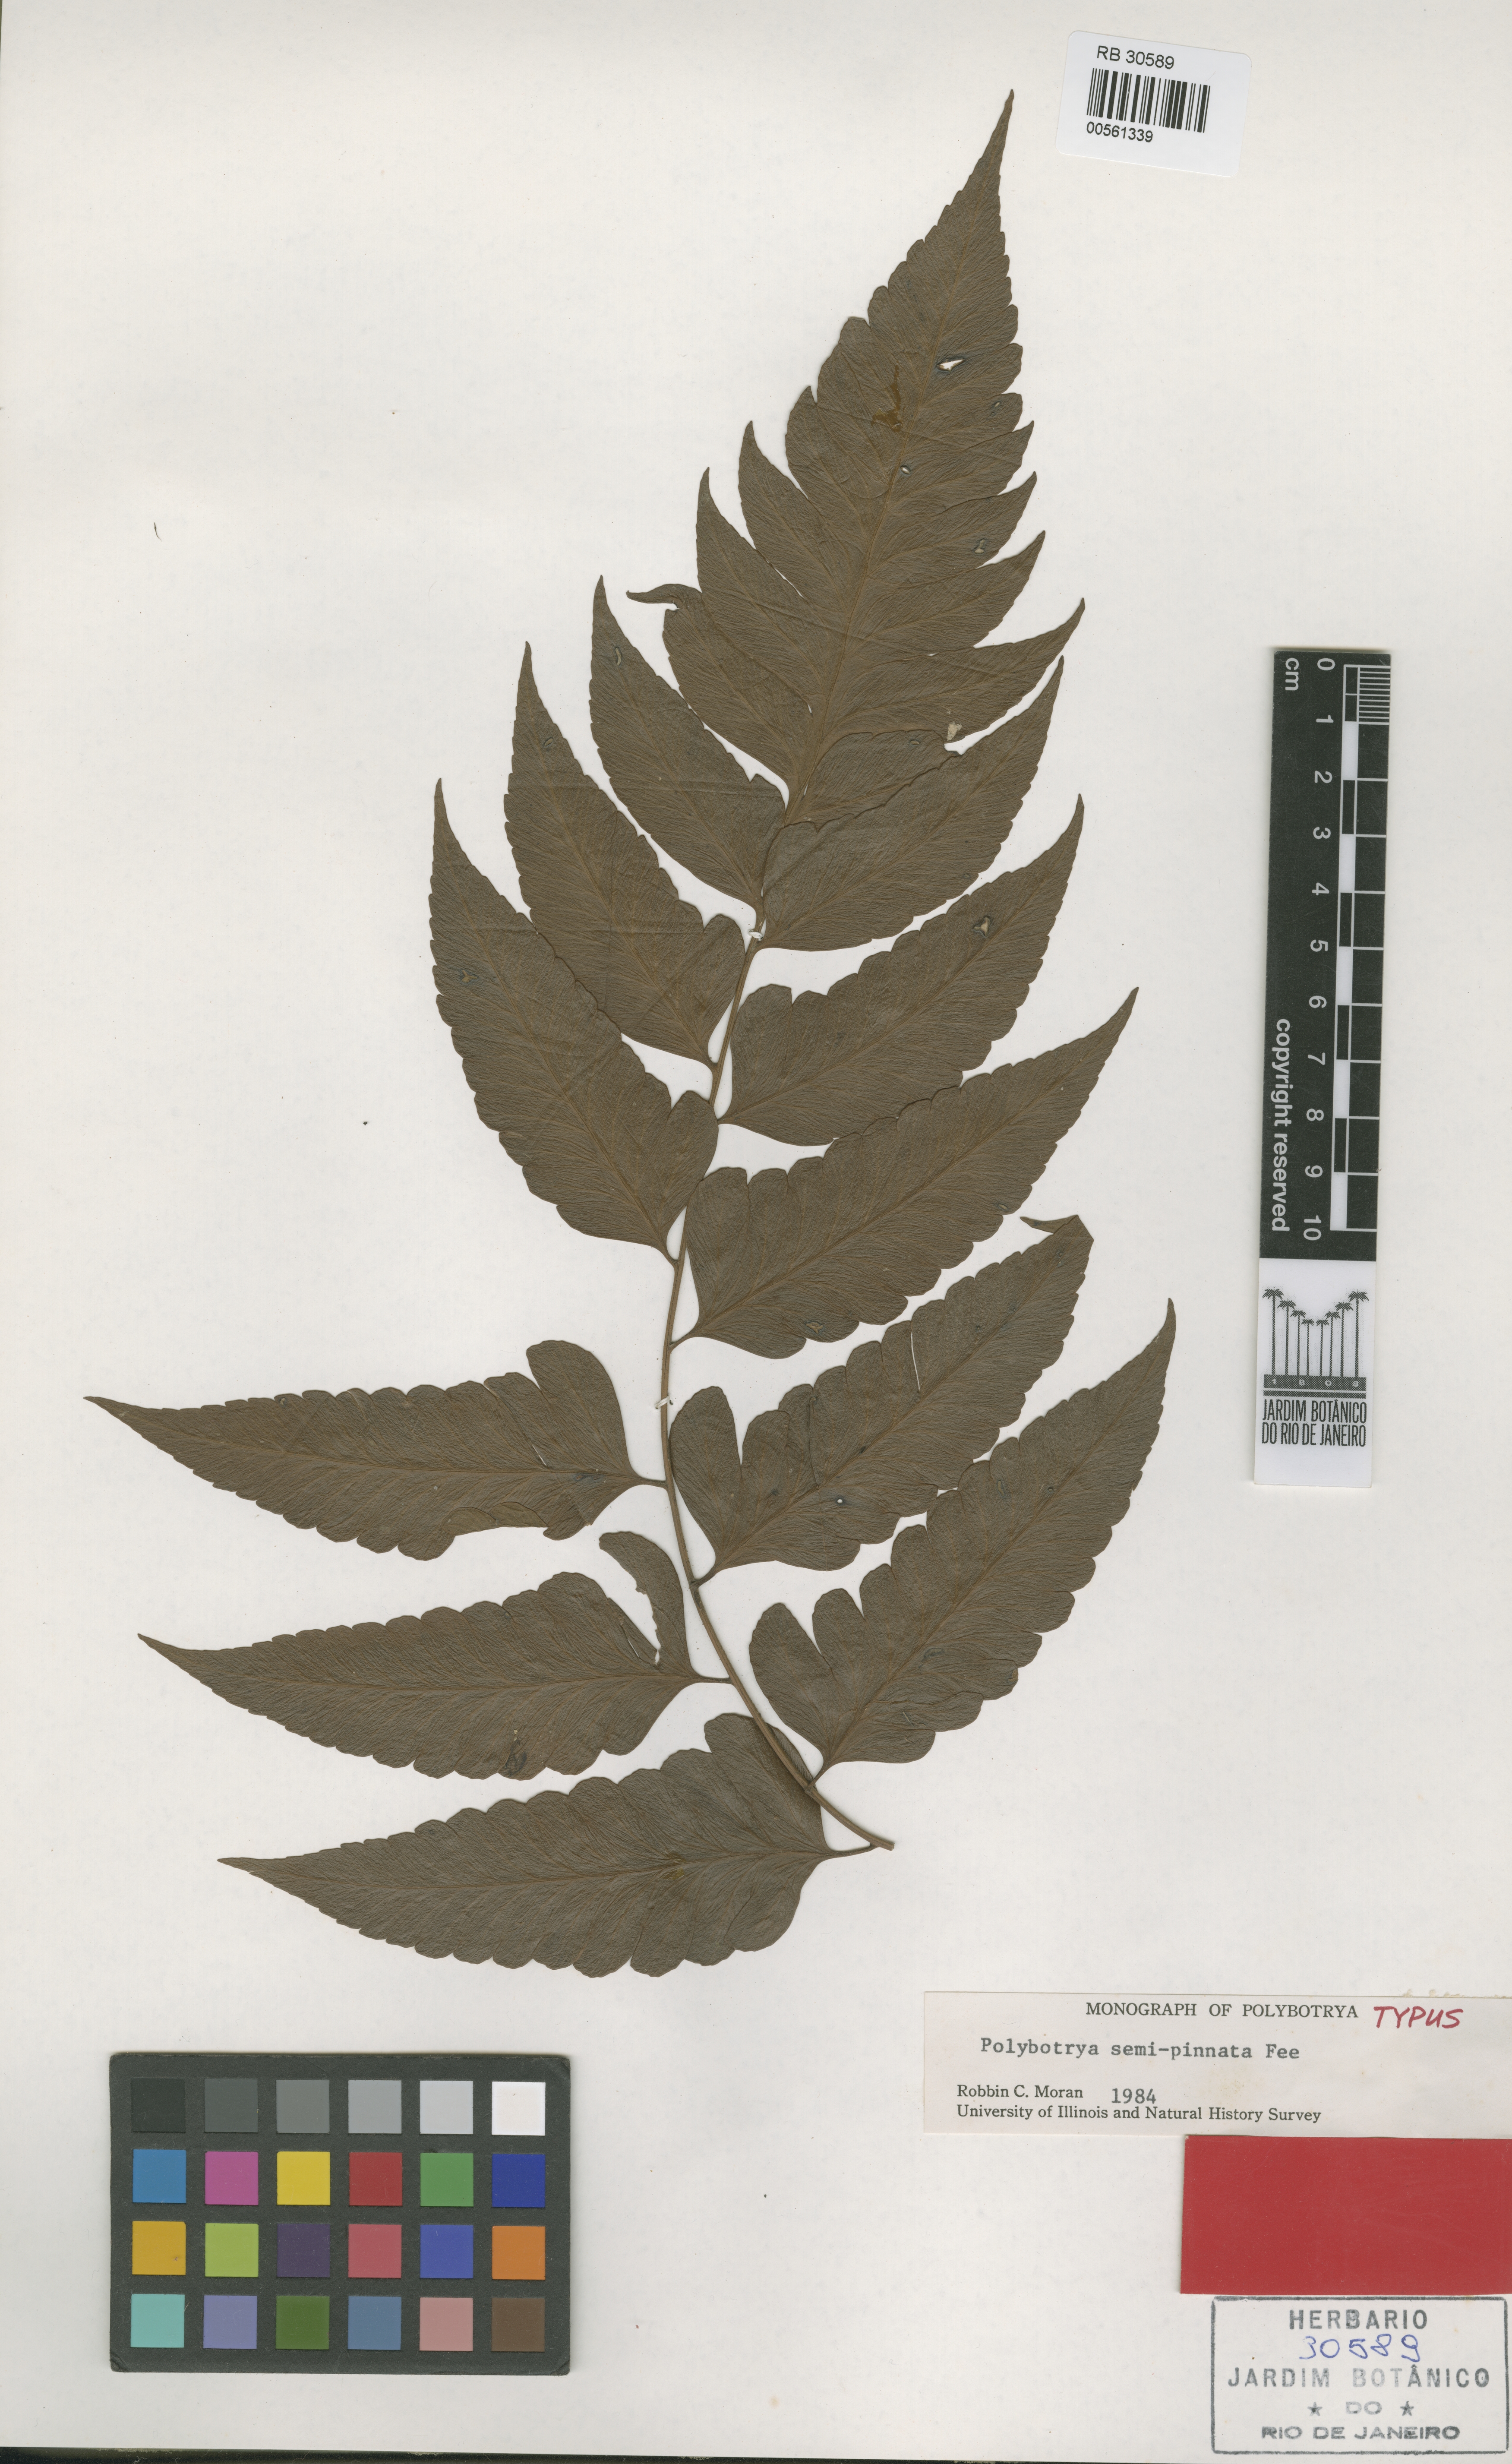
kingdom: Plantae
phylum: Tracheophyta
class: Polypodiopsida
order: Polypodiales
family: Dryopteridaceae
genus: Polybotrya
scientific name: Polybotrya semipinnata
